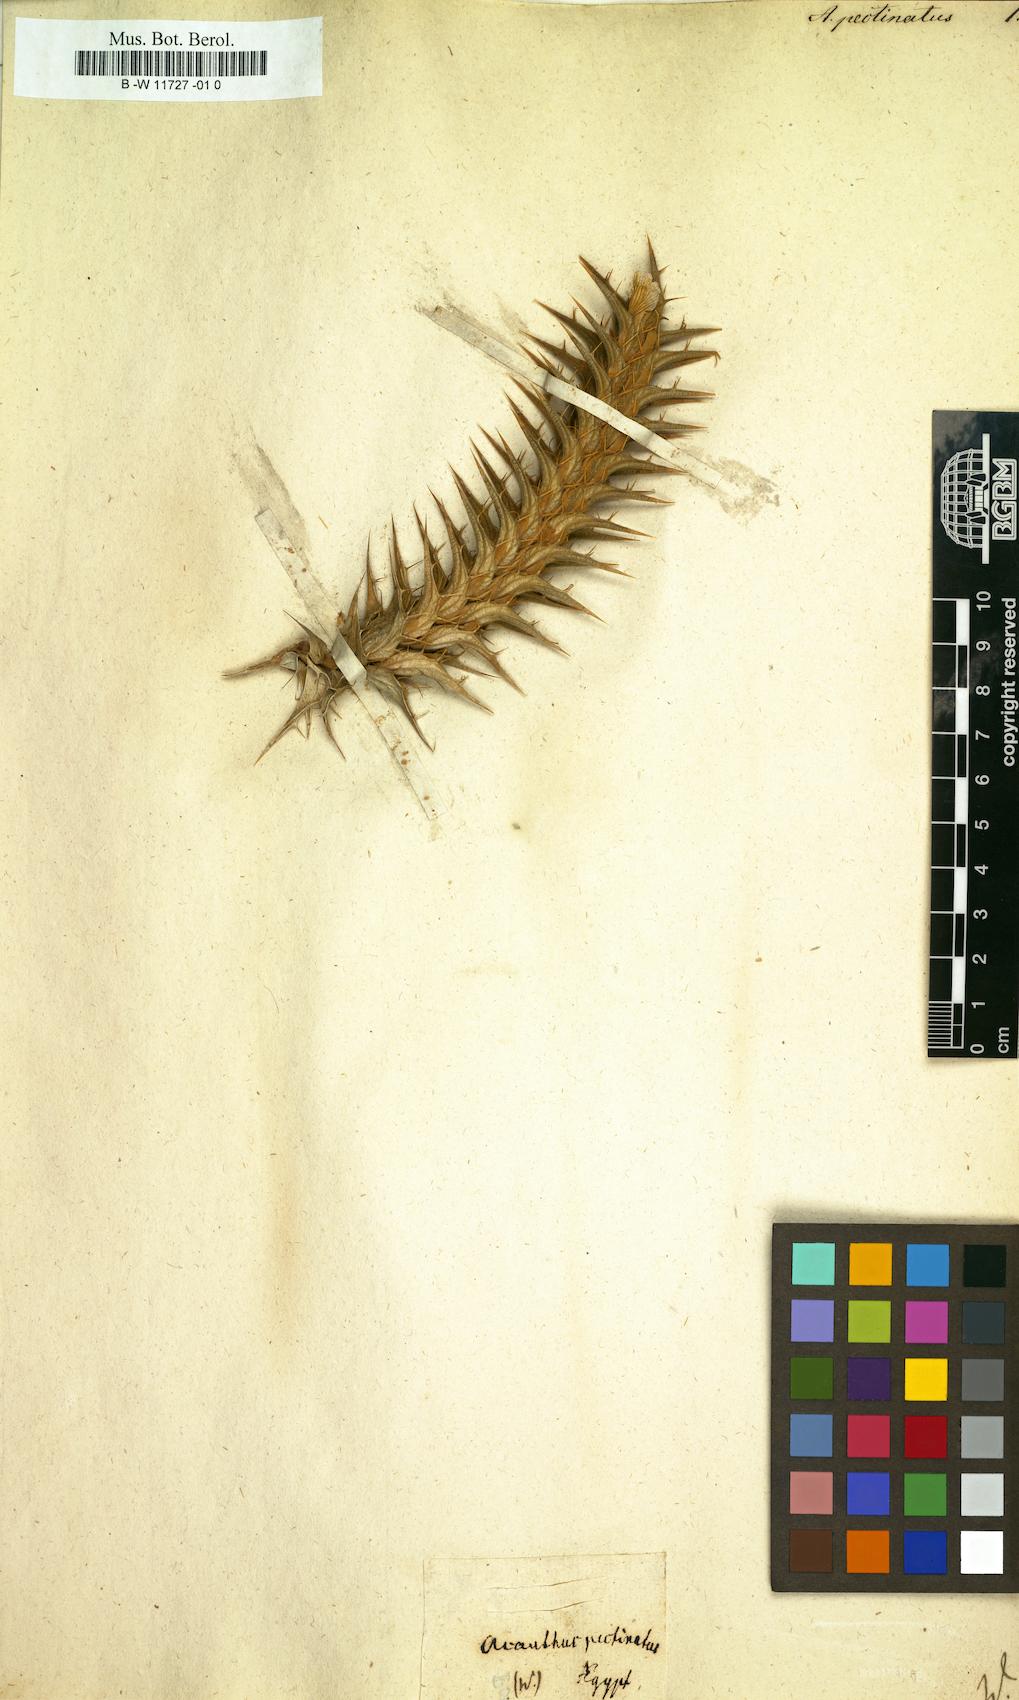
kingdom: Plantae
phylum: Tracheophyta
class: Magnoliopsida
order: Lamiales
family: Acanthaceae
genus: Blepharis
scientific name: Blepharis ciliaris
